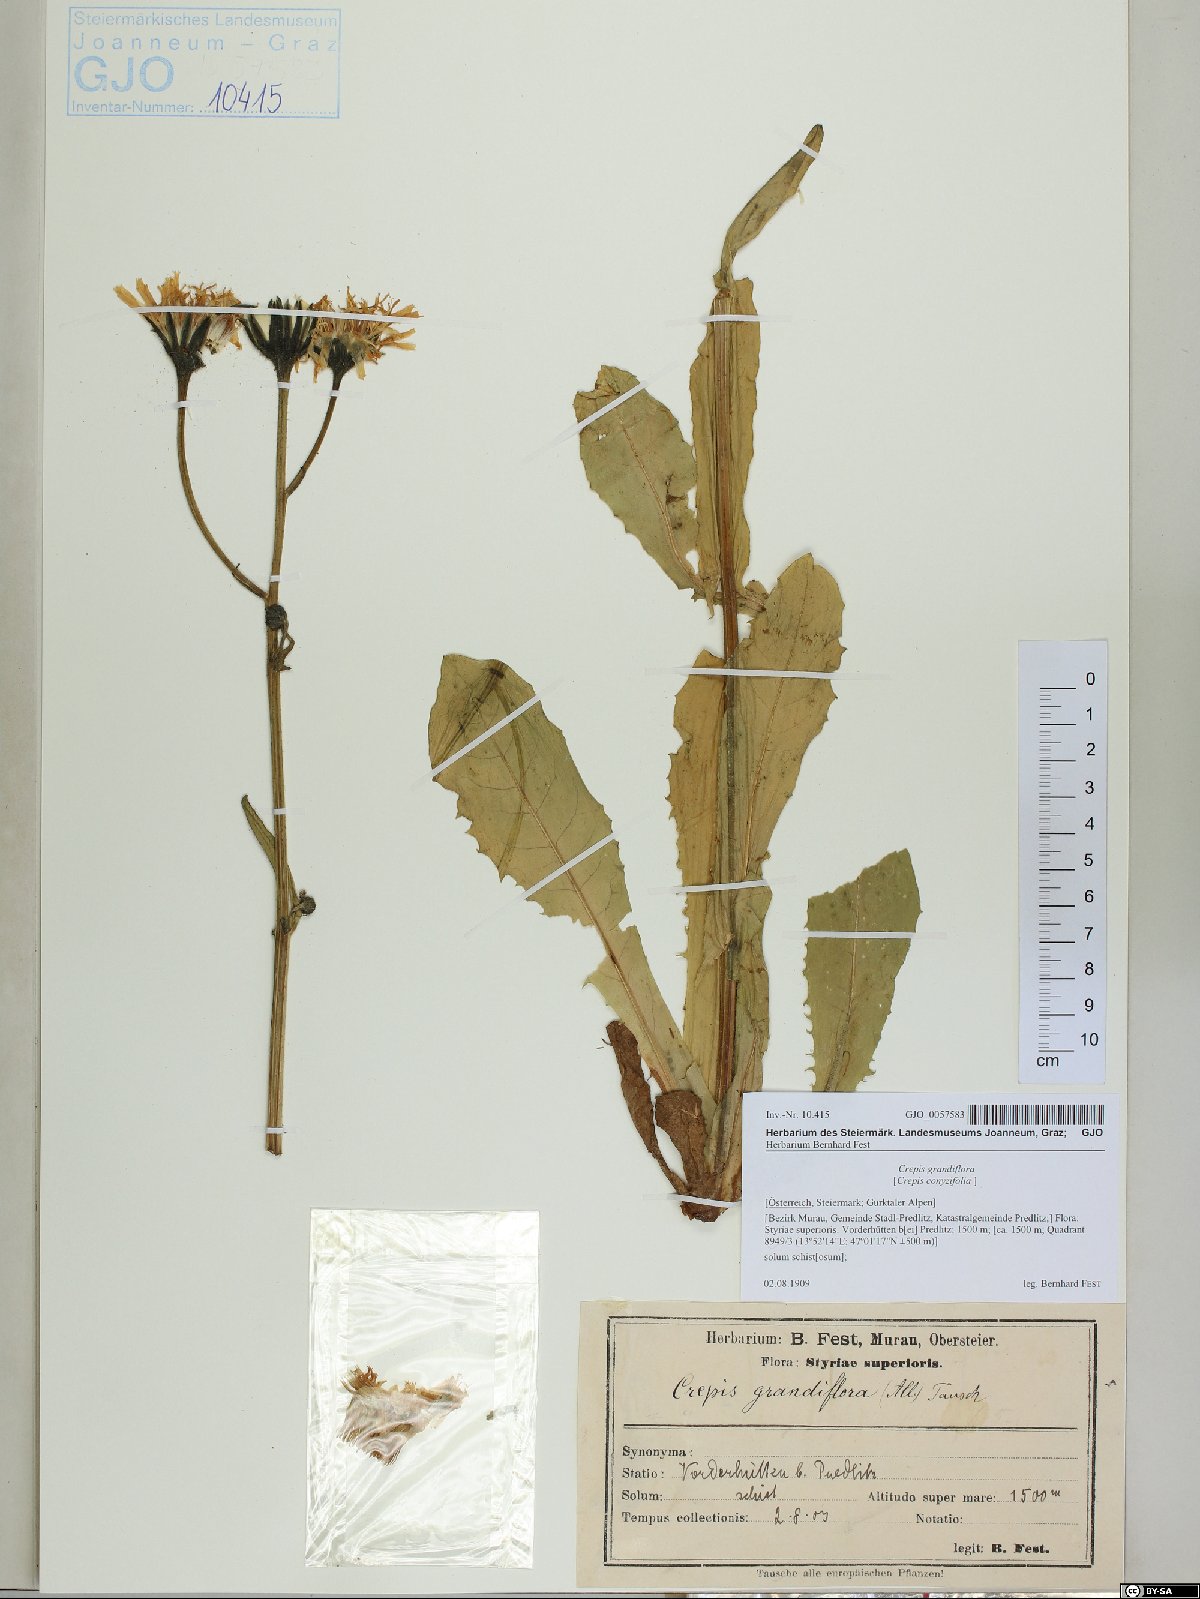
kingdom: Plantae
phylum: Tracheophyta
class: Magnoliopsida
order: Asterales
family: Asteraceae
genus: Crepis
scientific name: Crepis pyrenaica
